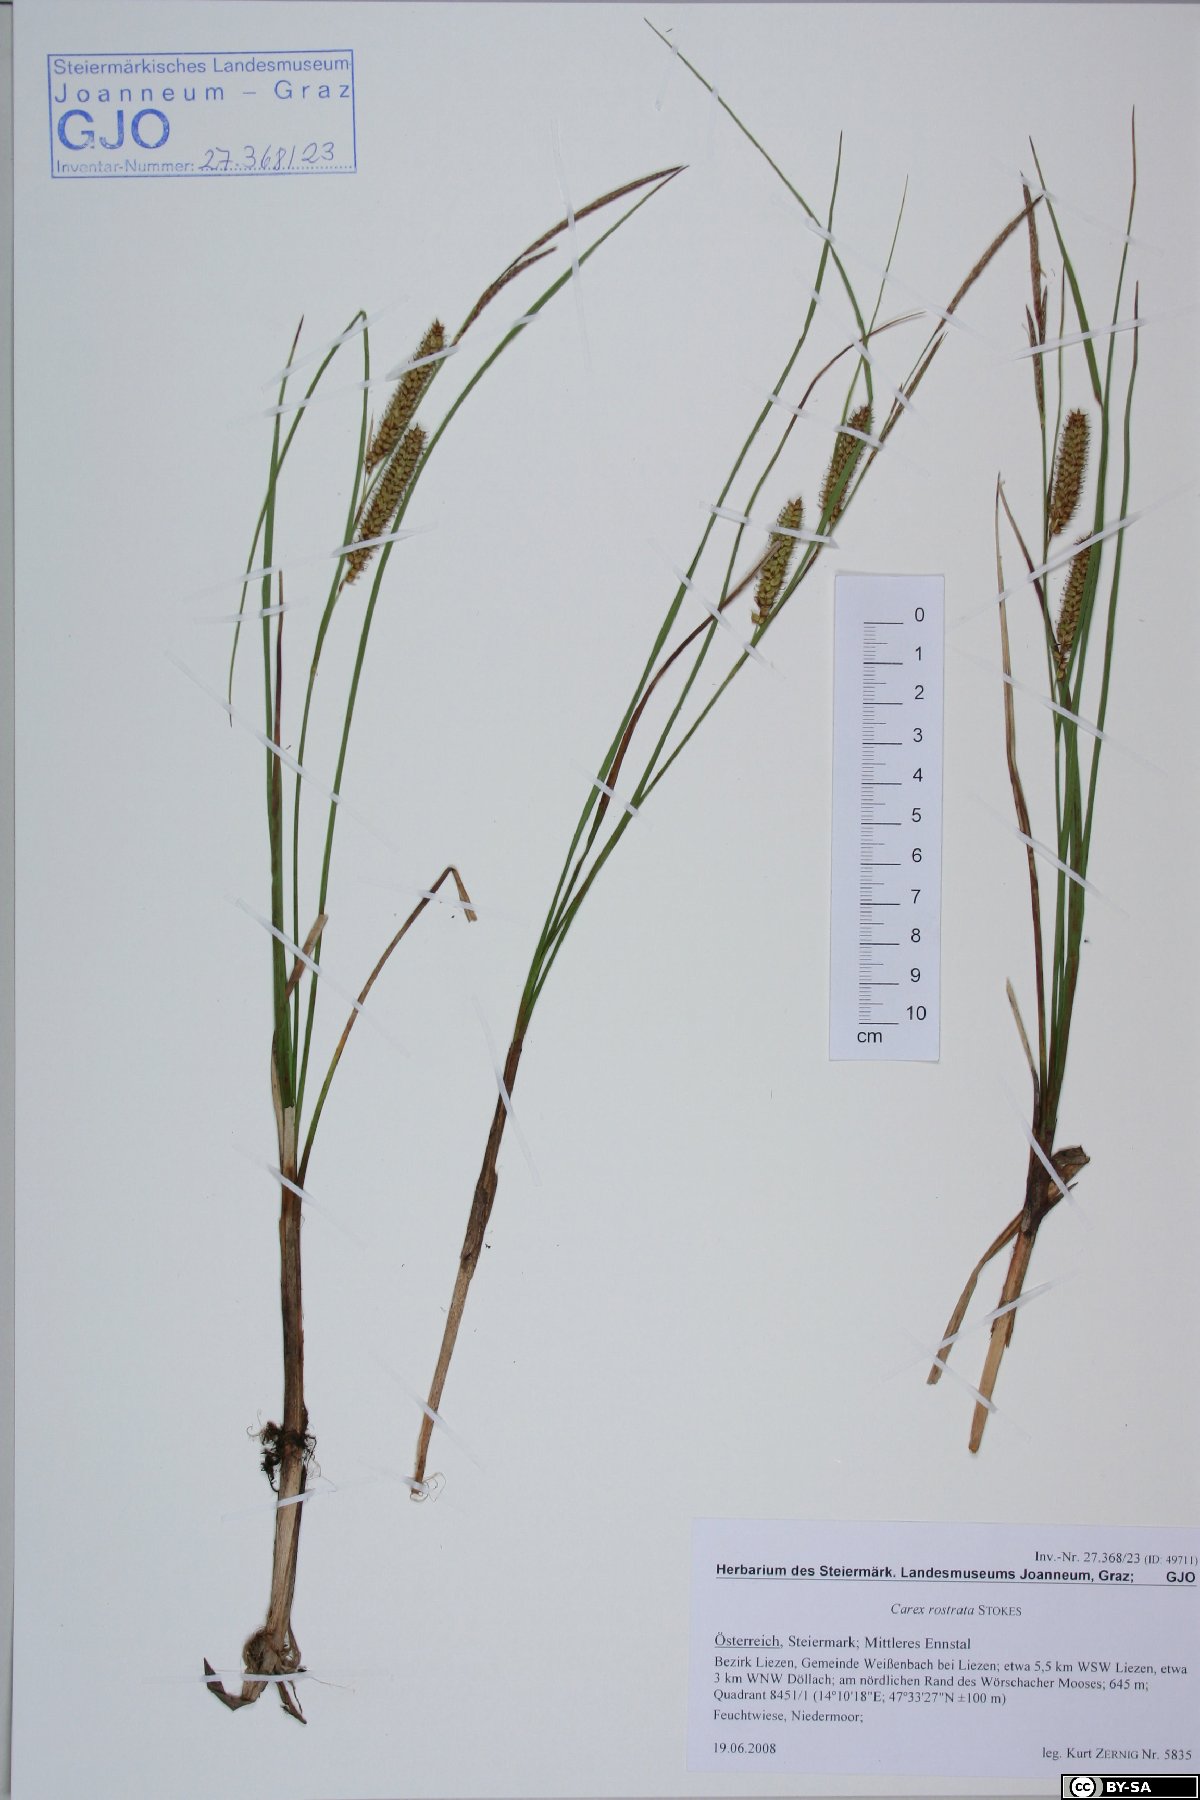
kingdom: Plantae
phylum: Tracheophyta
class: Liliopsida
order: Poales
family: Cyperaceae
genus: Carex
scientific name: Carex rostrata
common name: Bottle sedge
